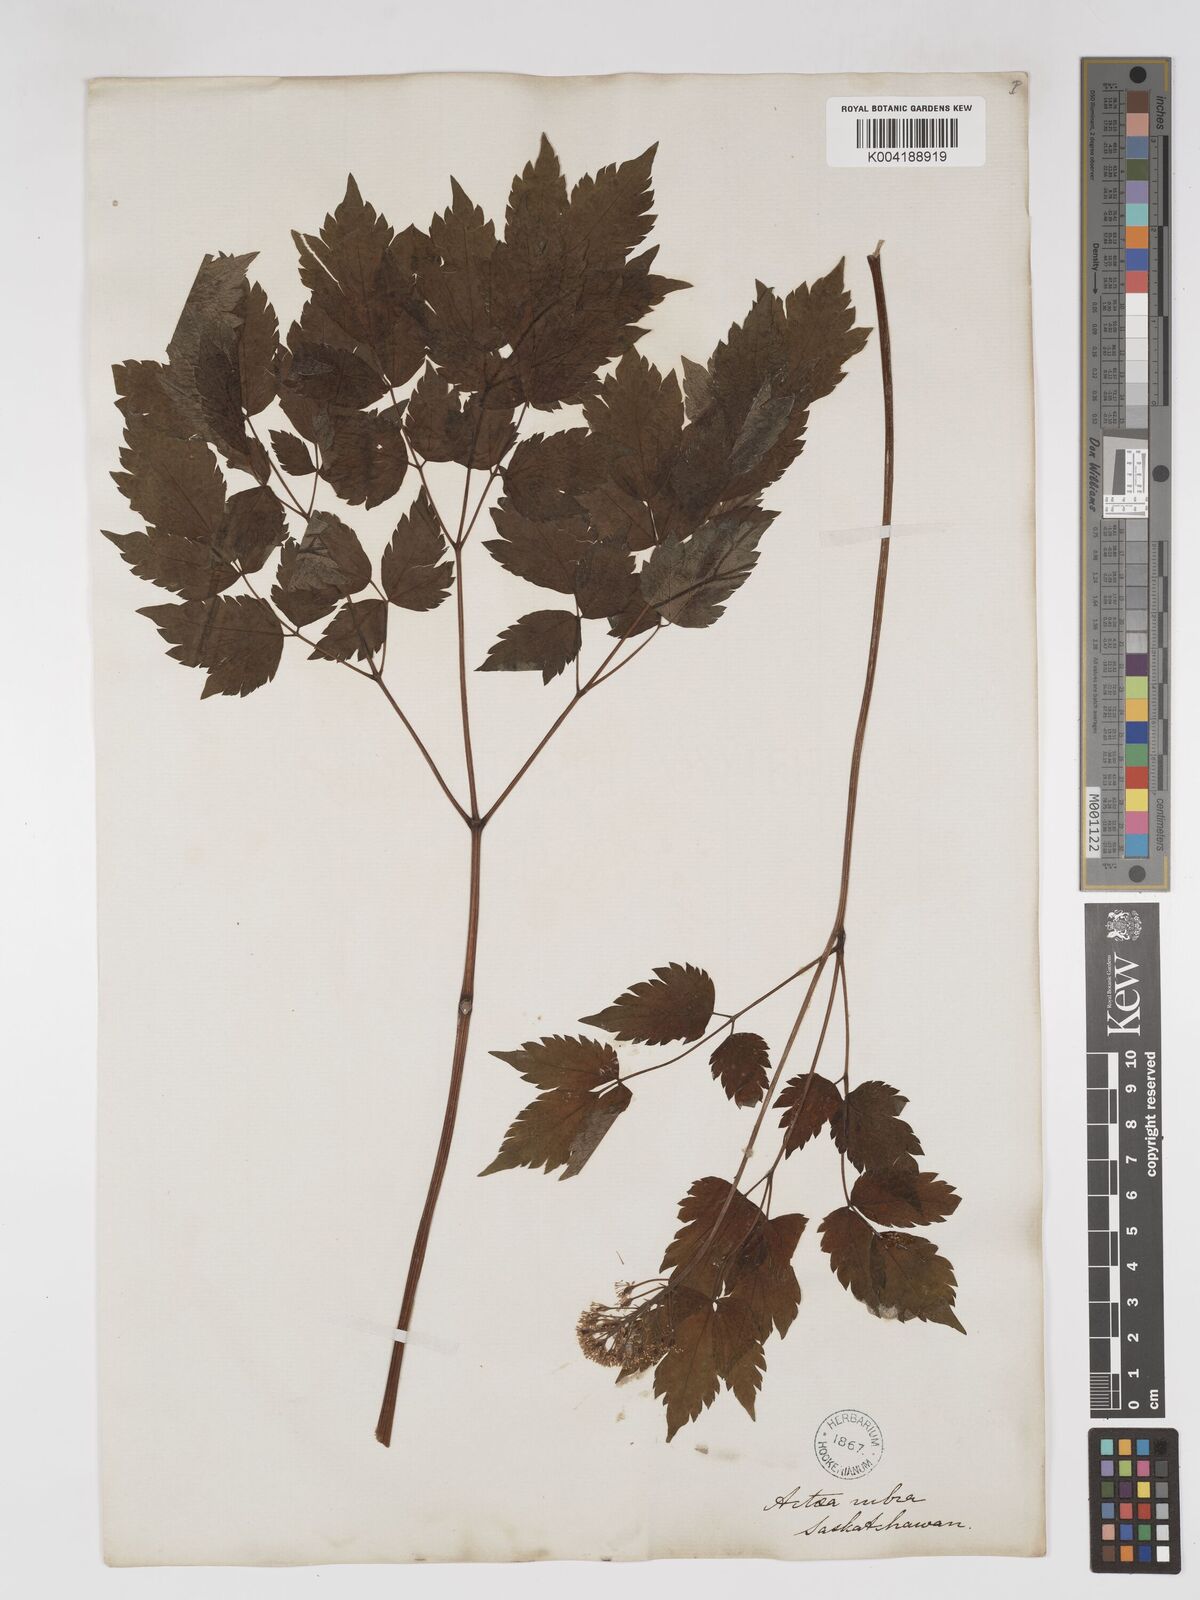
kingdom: Plantae
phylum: Tracheophyta
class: Magnoliopsida
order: Ranunculales
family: Ranunculaceae
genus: Actaea
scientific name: Actaea rubra
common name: Red baneberry
